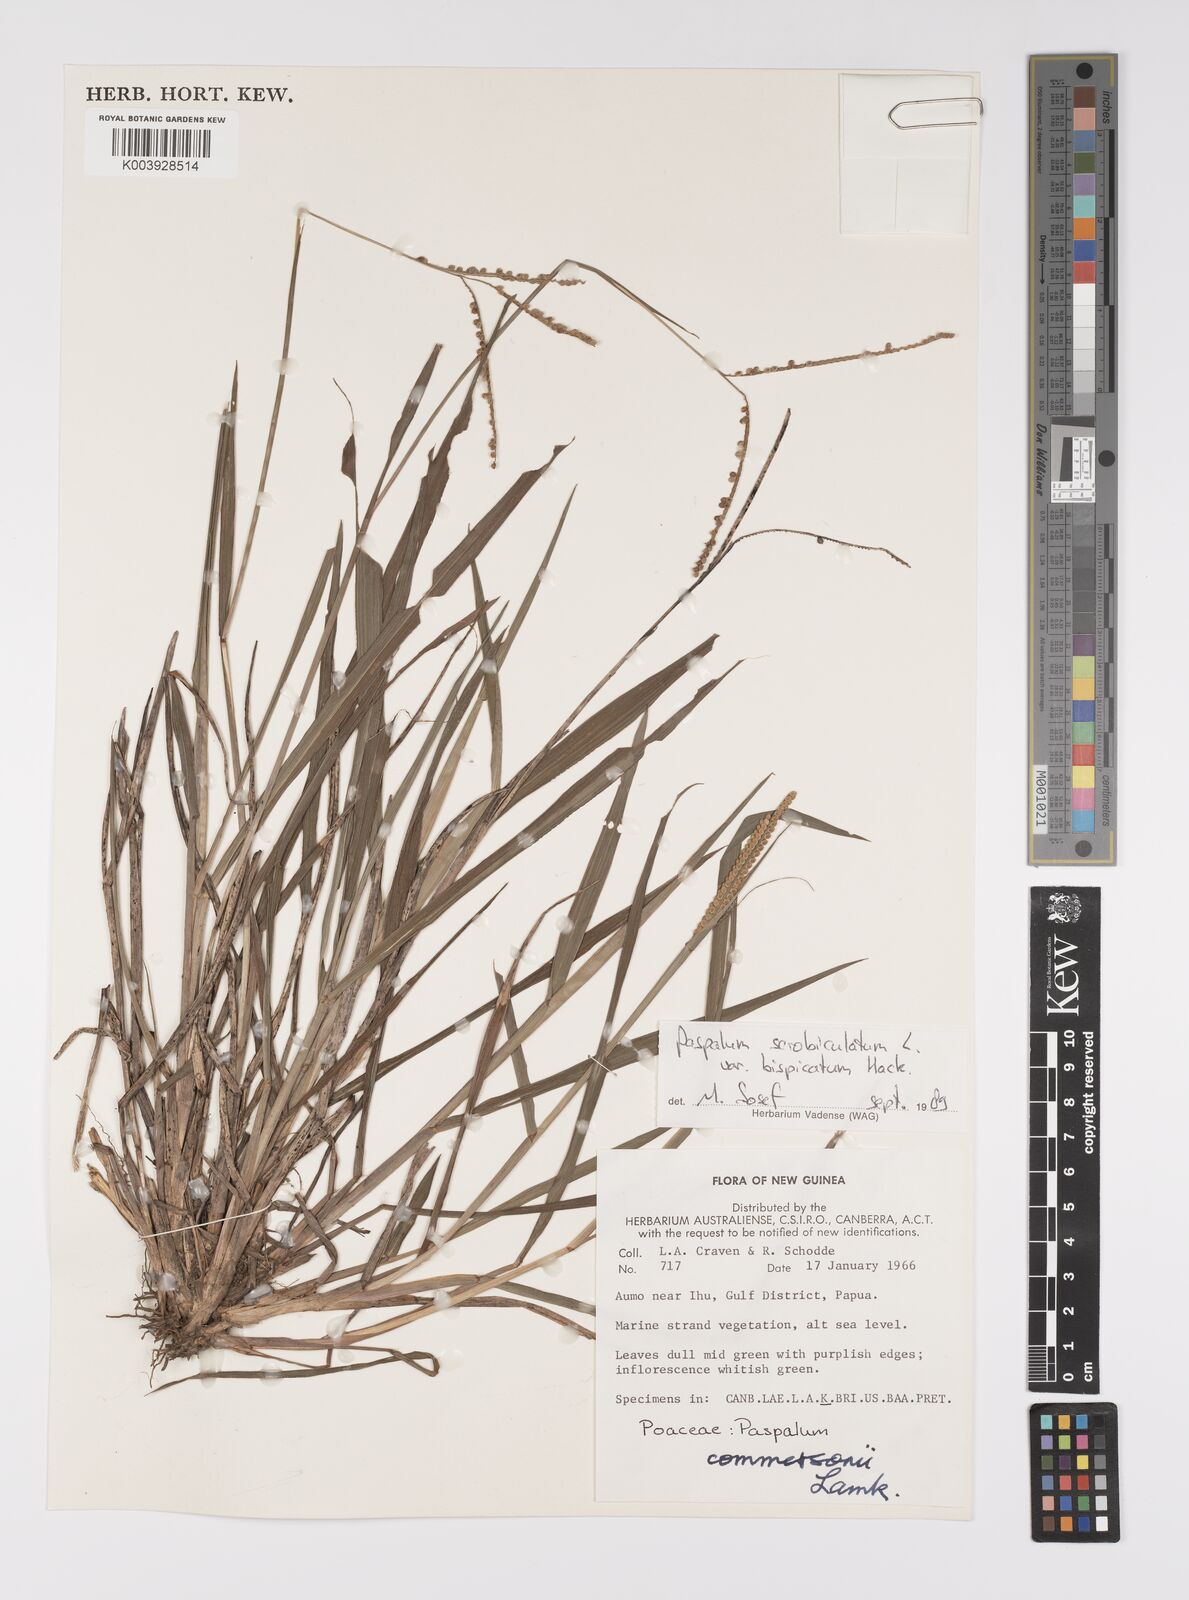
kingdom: Plantae
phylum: Tracheophyta
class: Liliopsida
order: Poales
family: Poaceae
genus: Paspalum
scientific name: Paspalum scrobiculatum
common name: Kodo millet
